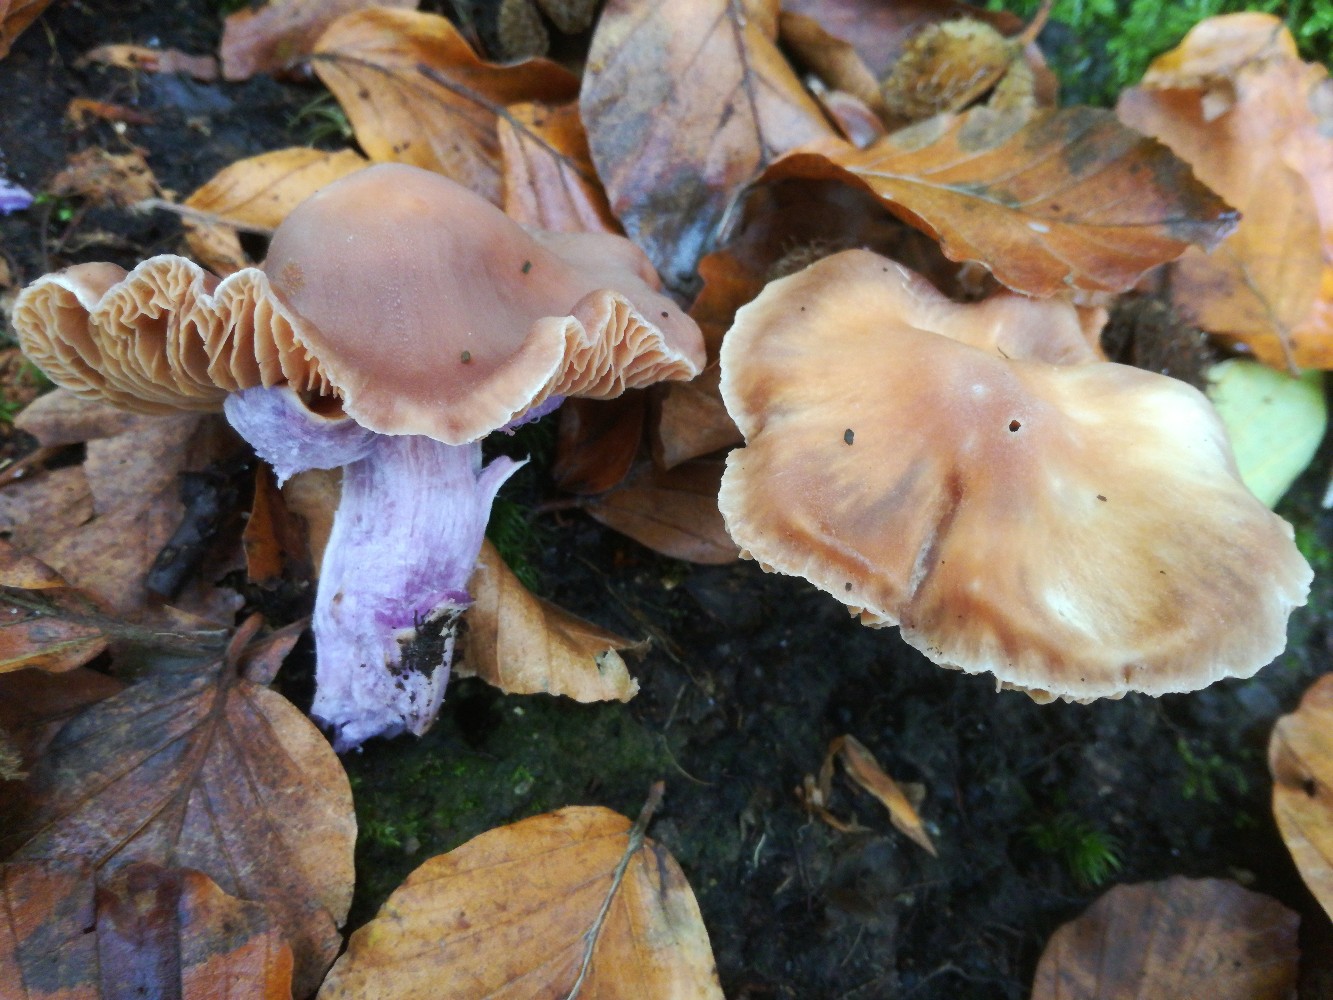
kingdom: Fungi
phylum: Basidiomycota
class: Agaricomycetes
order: Agaricales
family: Cortinariaceae
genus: Cortinarius
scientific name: Cortinarius cagei
